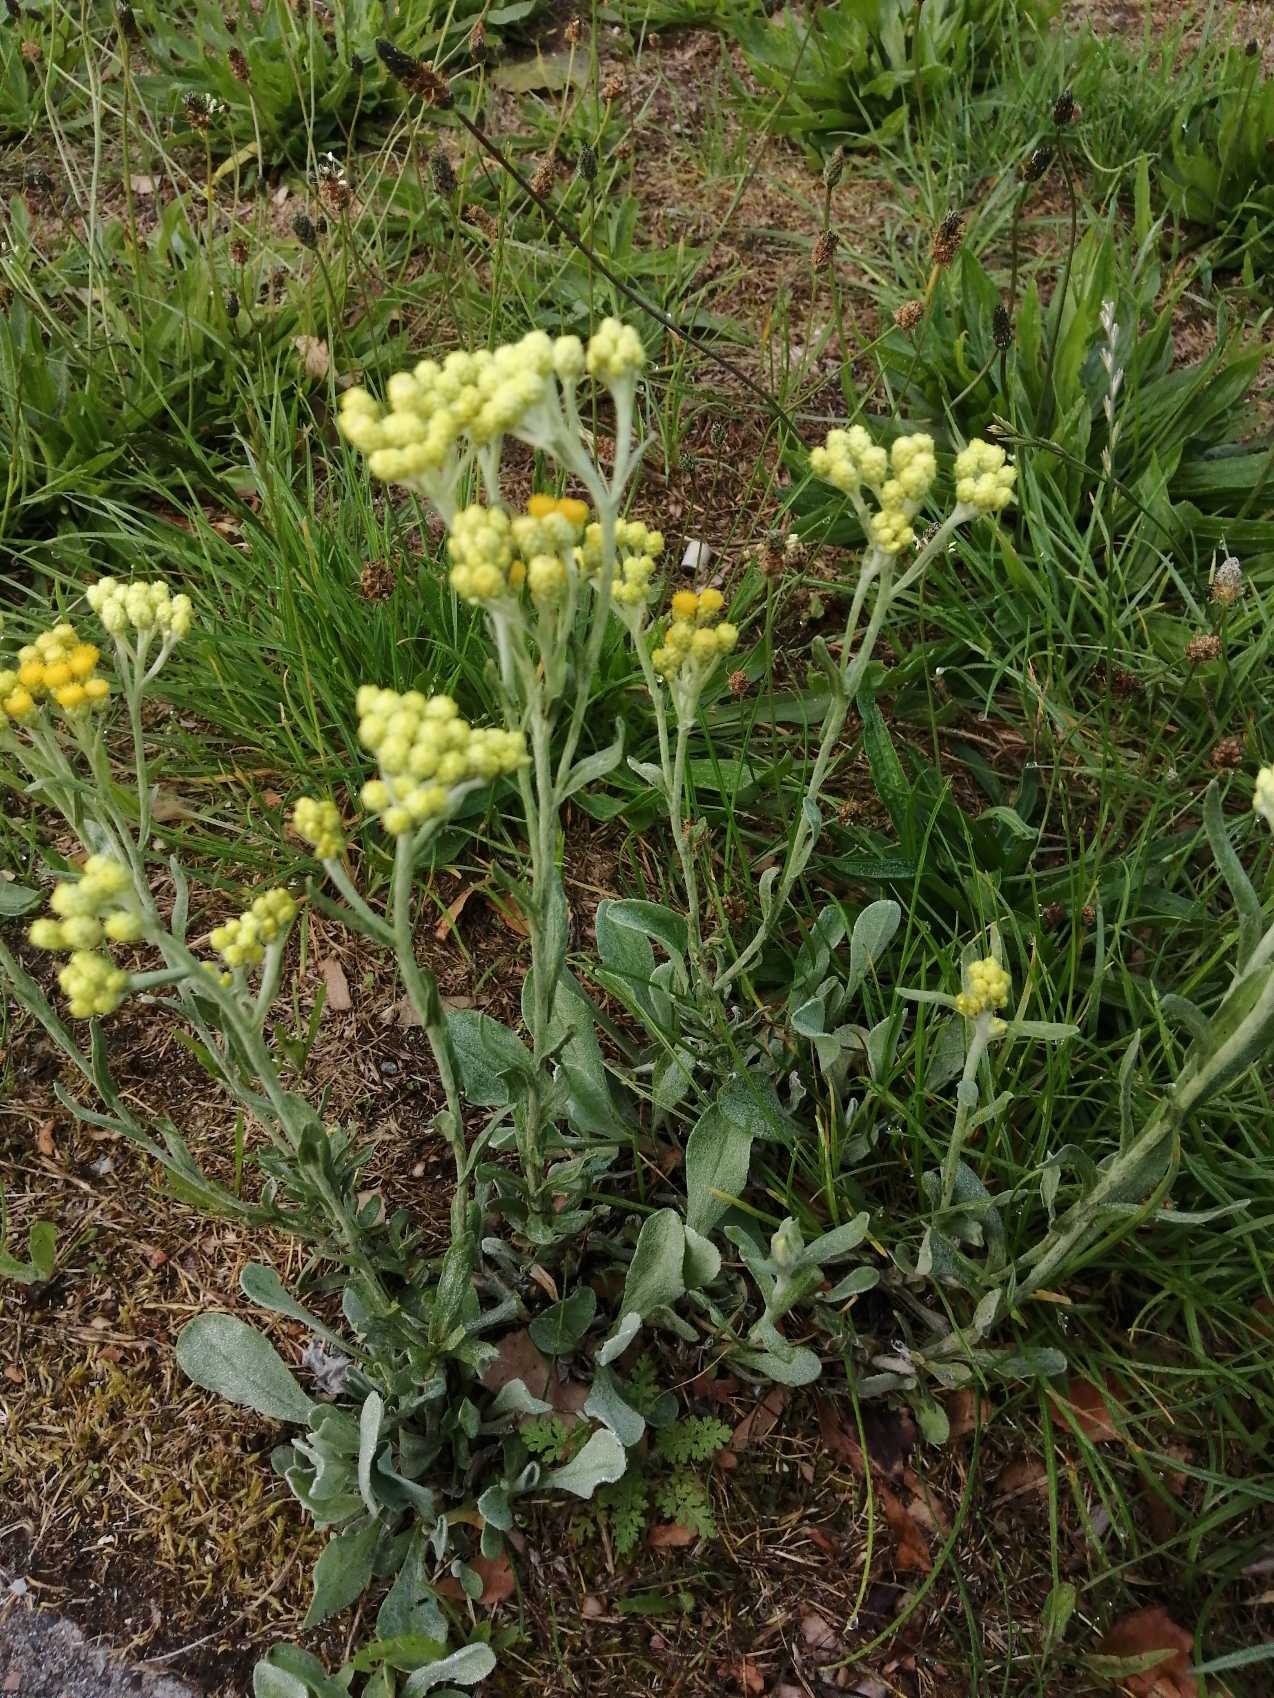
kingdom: Plantae
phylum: Tracheophyta
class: Magnoliopsida
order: Asterales
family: Asteraceae
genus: Helichrysum
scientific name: Helichrysum arenarium
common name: Gul evighedsblomst
